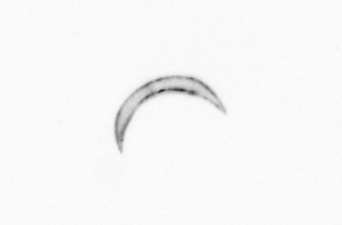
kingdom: Chromista
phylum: Ochrophyta
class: Bacillariophyceae
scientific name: Bacillariophyceae
